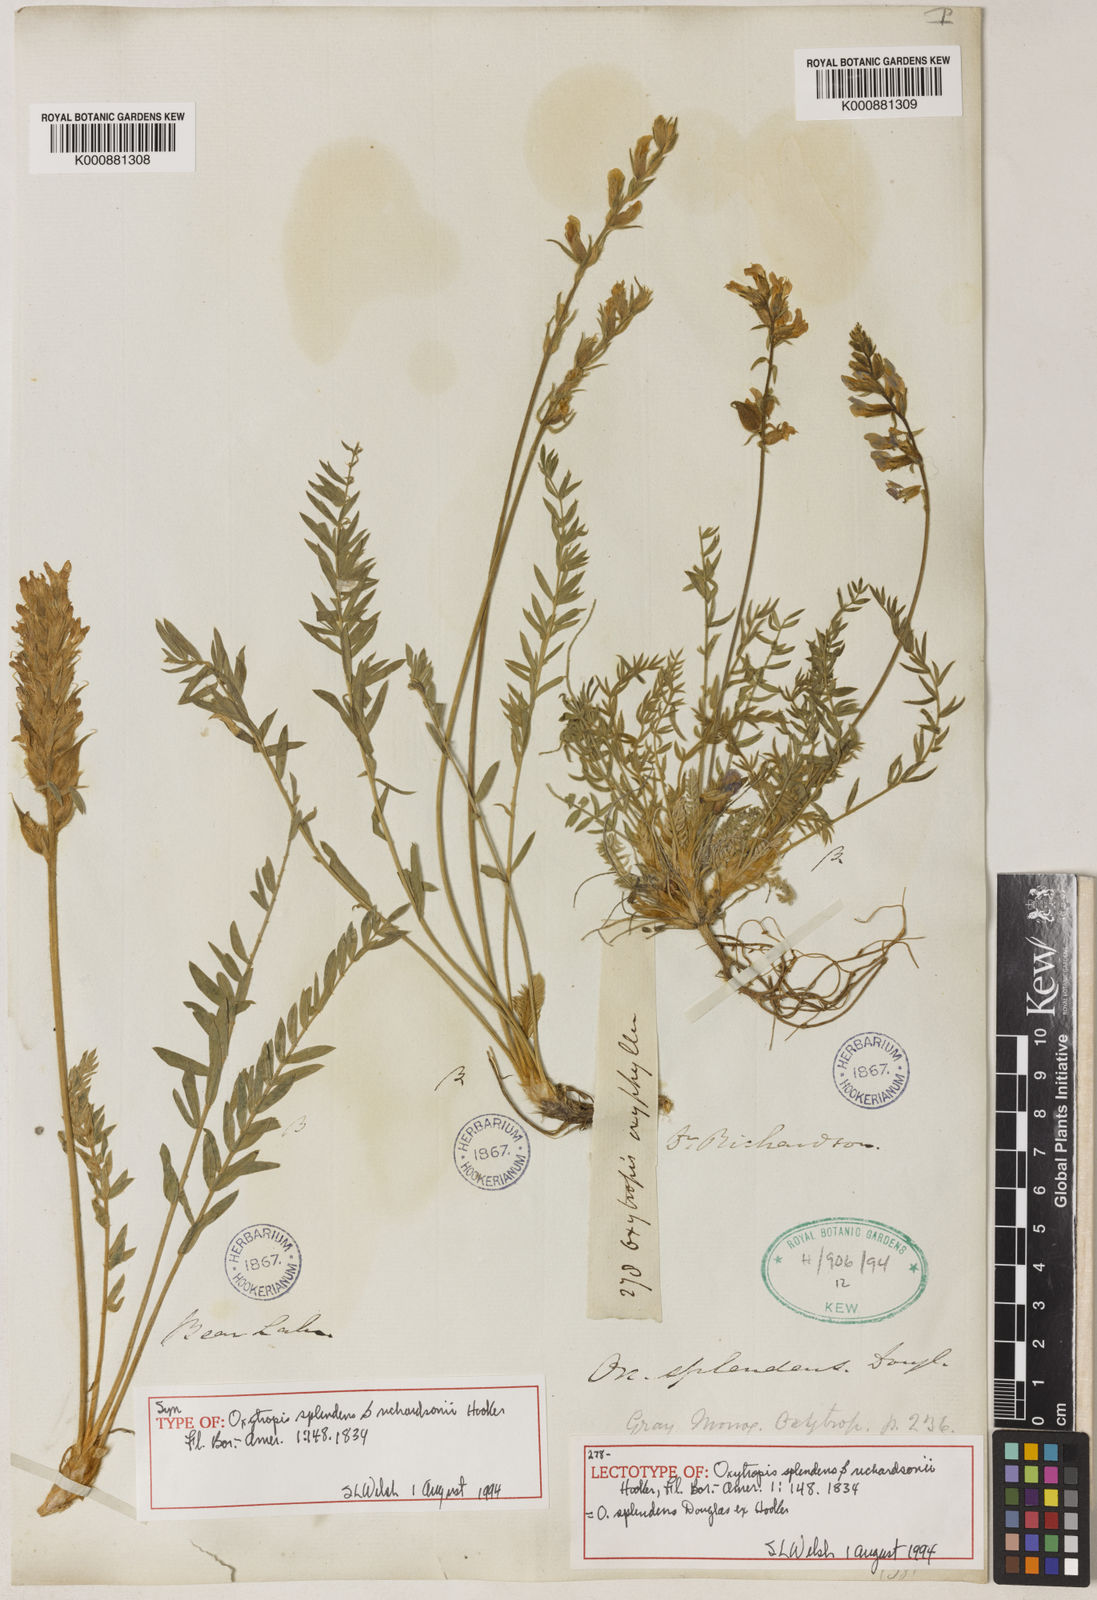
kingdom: Plantae
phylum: Tracheophyta
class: Magnoliopsida
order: Fabales
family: Fabaceae
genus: Oxytropis
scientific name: Oxytropis
